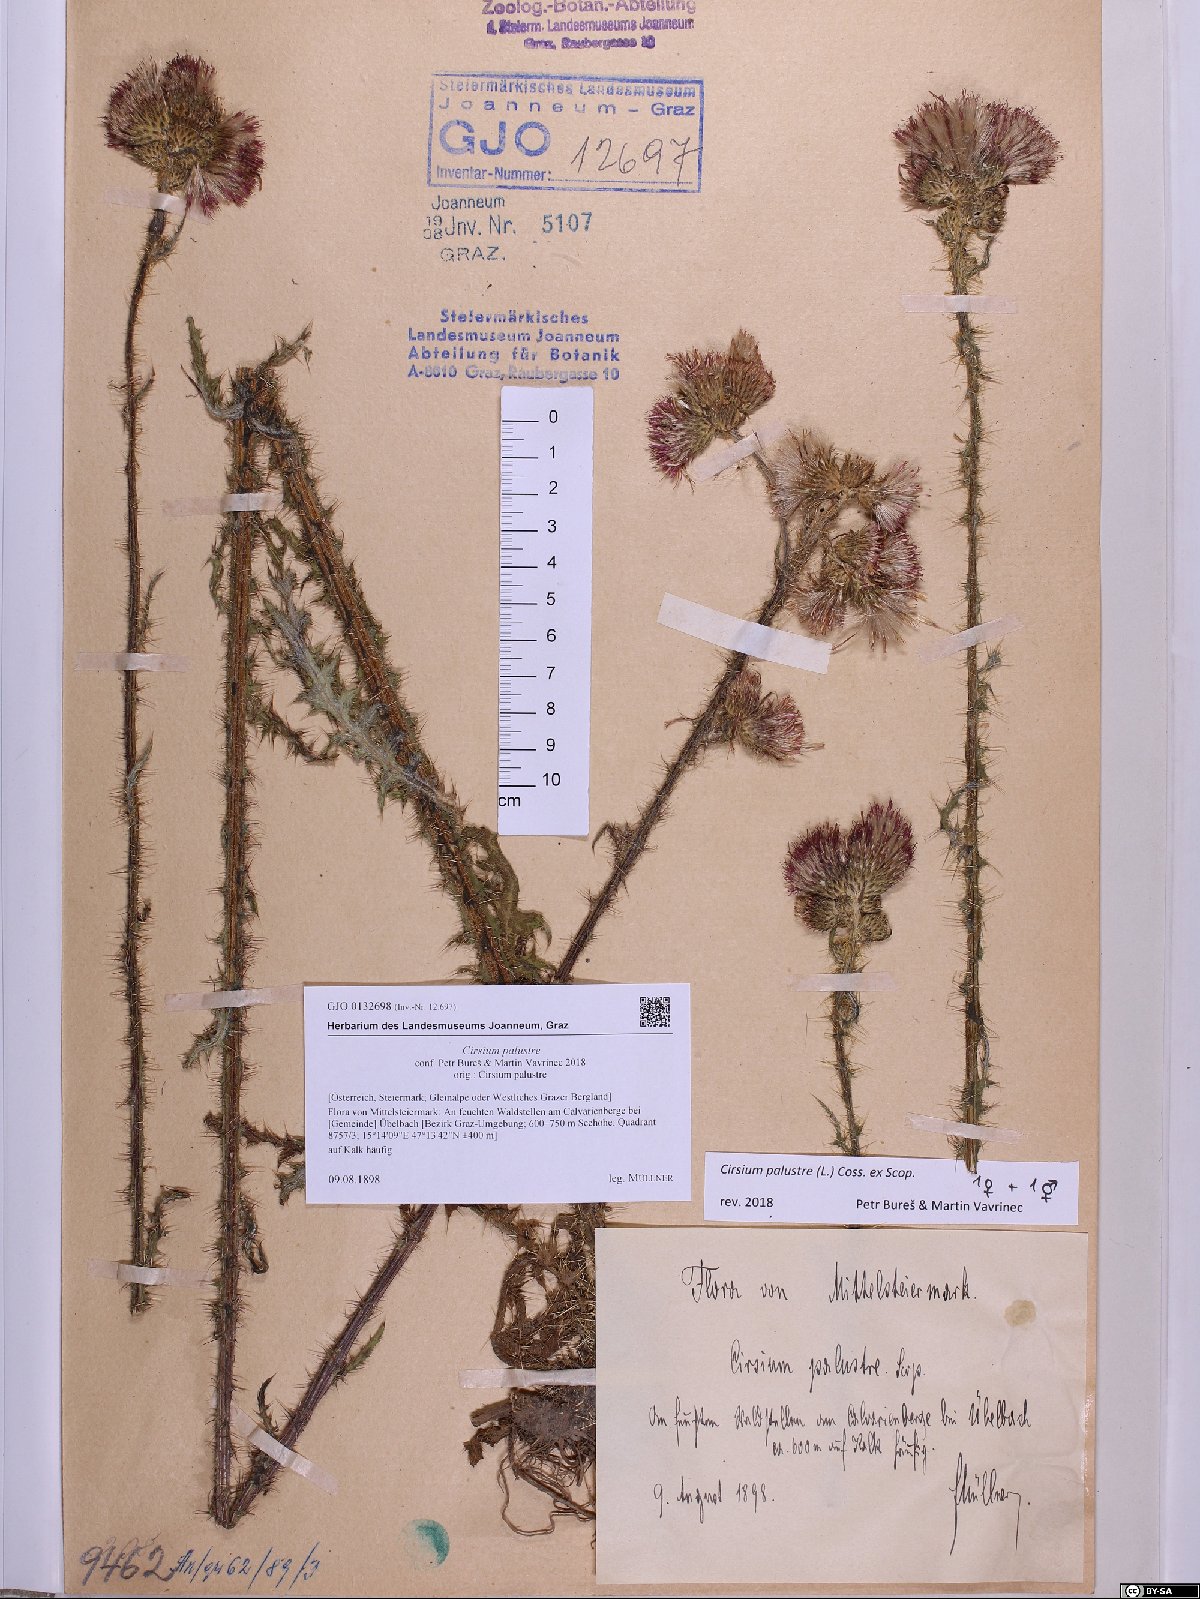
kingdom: Plantae
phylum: Tracheophyta
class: Magnoliopsida
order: Asterales
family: Asteraceae
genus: Cirsium
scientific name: Cirsium palustre
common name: Marsh thistle
